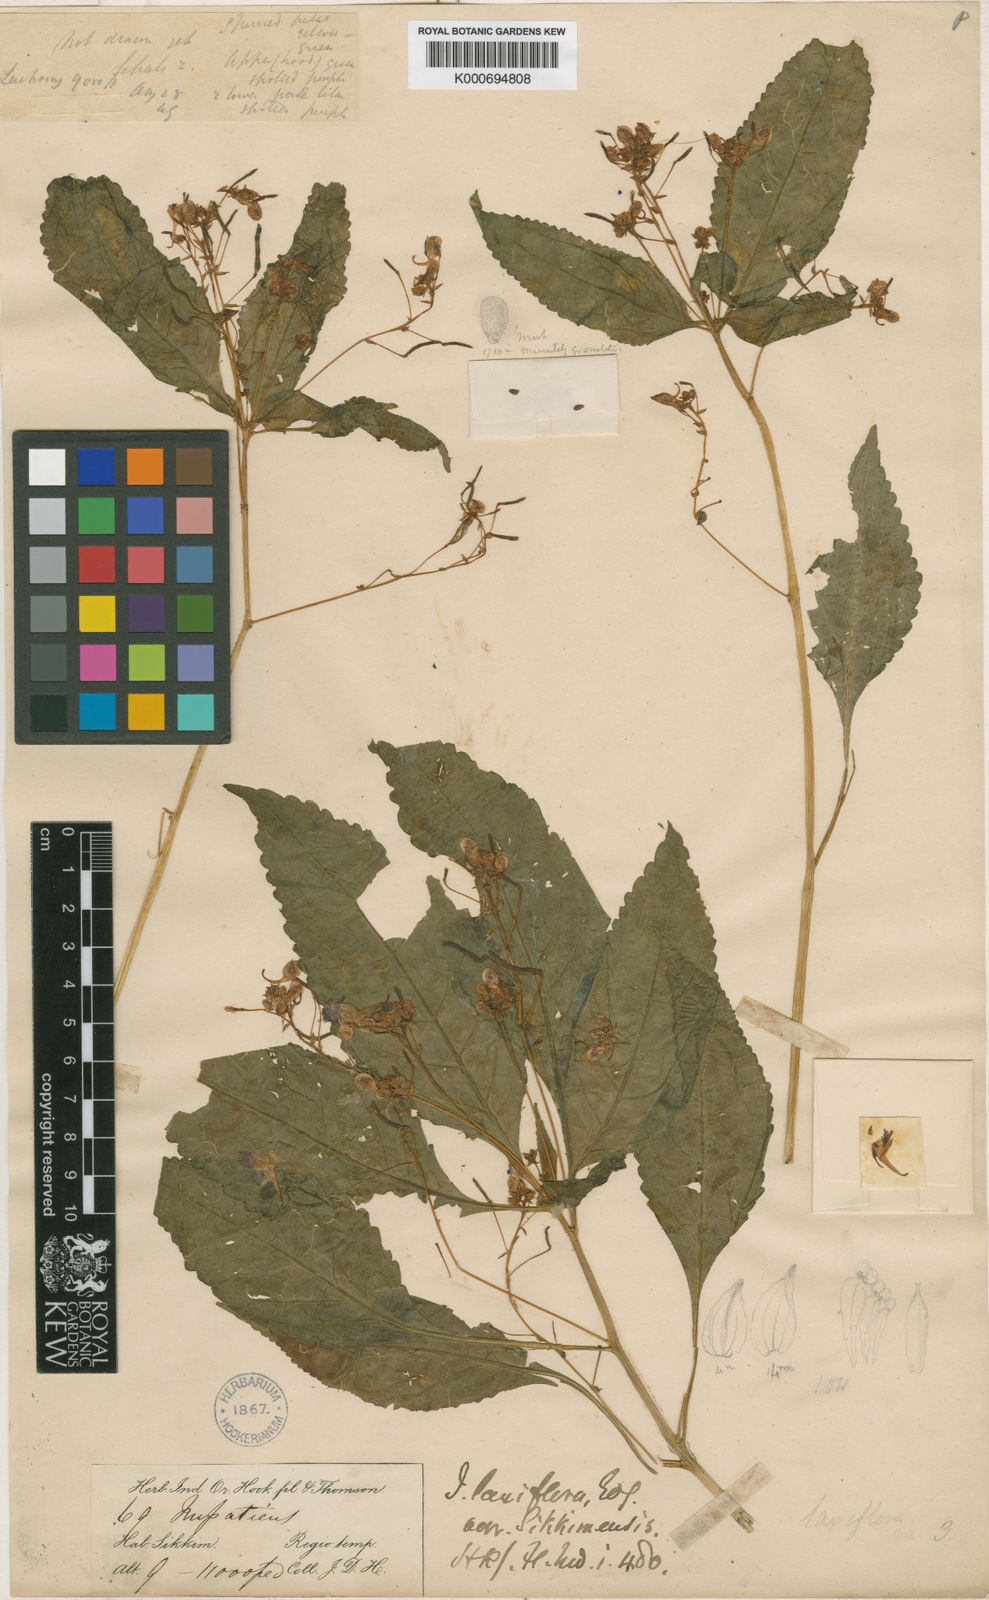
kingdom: Plantae
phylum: Tracheophyta
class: Magnoliopsida
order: Ericales
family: Balsaminaceae
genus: Impatiens
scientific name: Impatiens laxiflora
